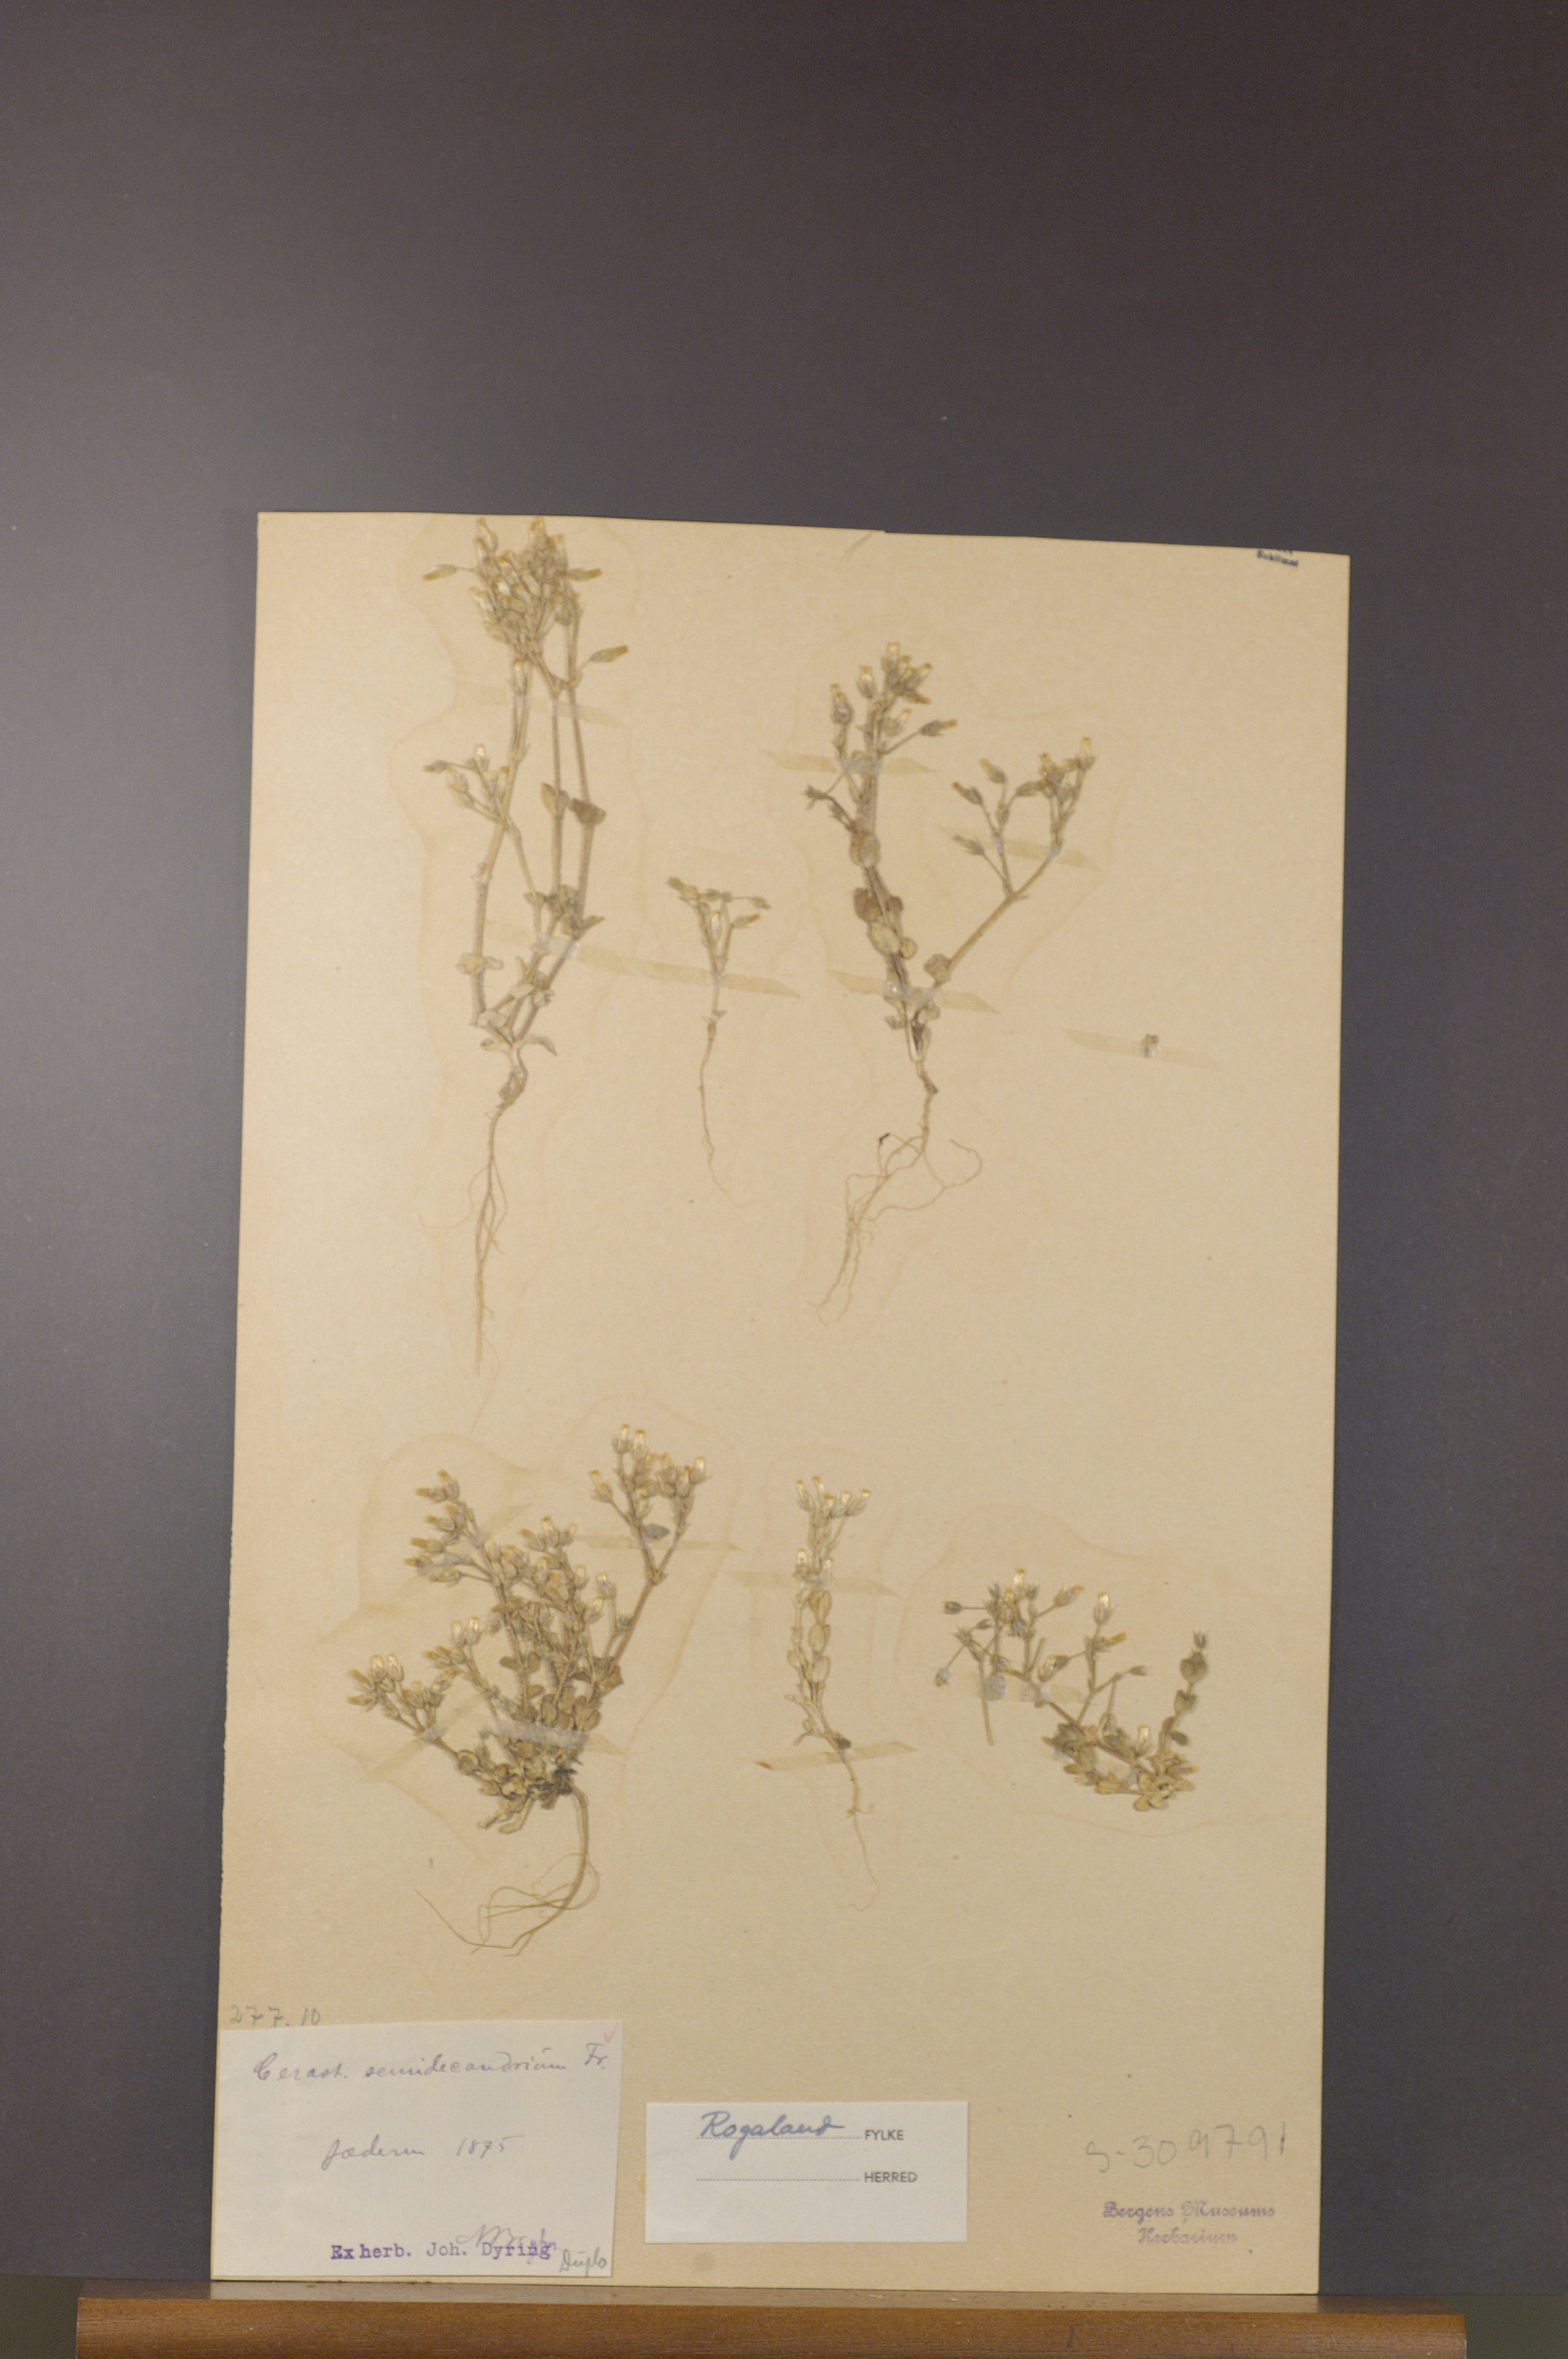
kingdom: Plantae
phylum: Tracheophyta
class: Magnoliopsida
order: Caryophyllales
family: Caryophyllaceae
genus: Cerastium
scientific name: Cerastium semidecandrum
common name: Little mouse-ear
